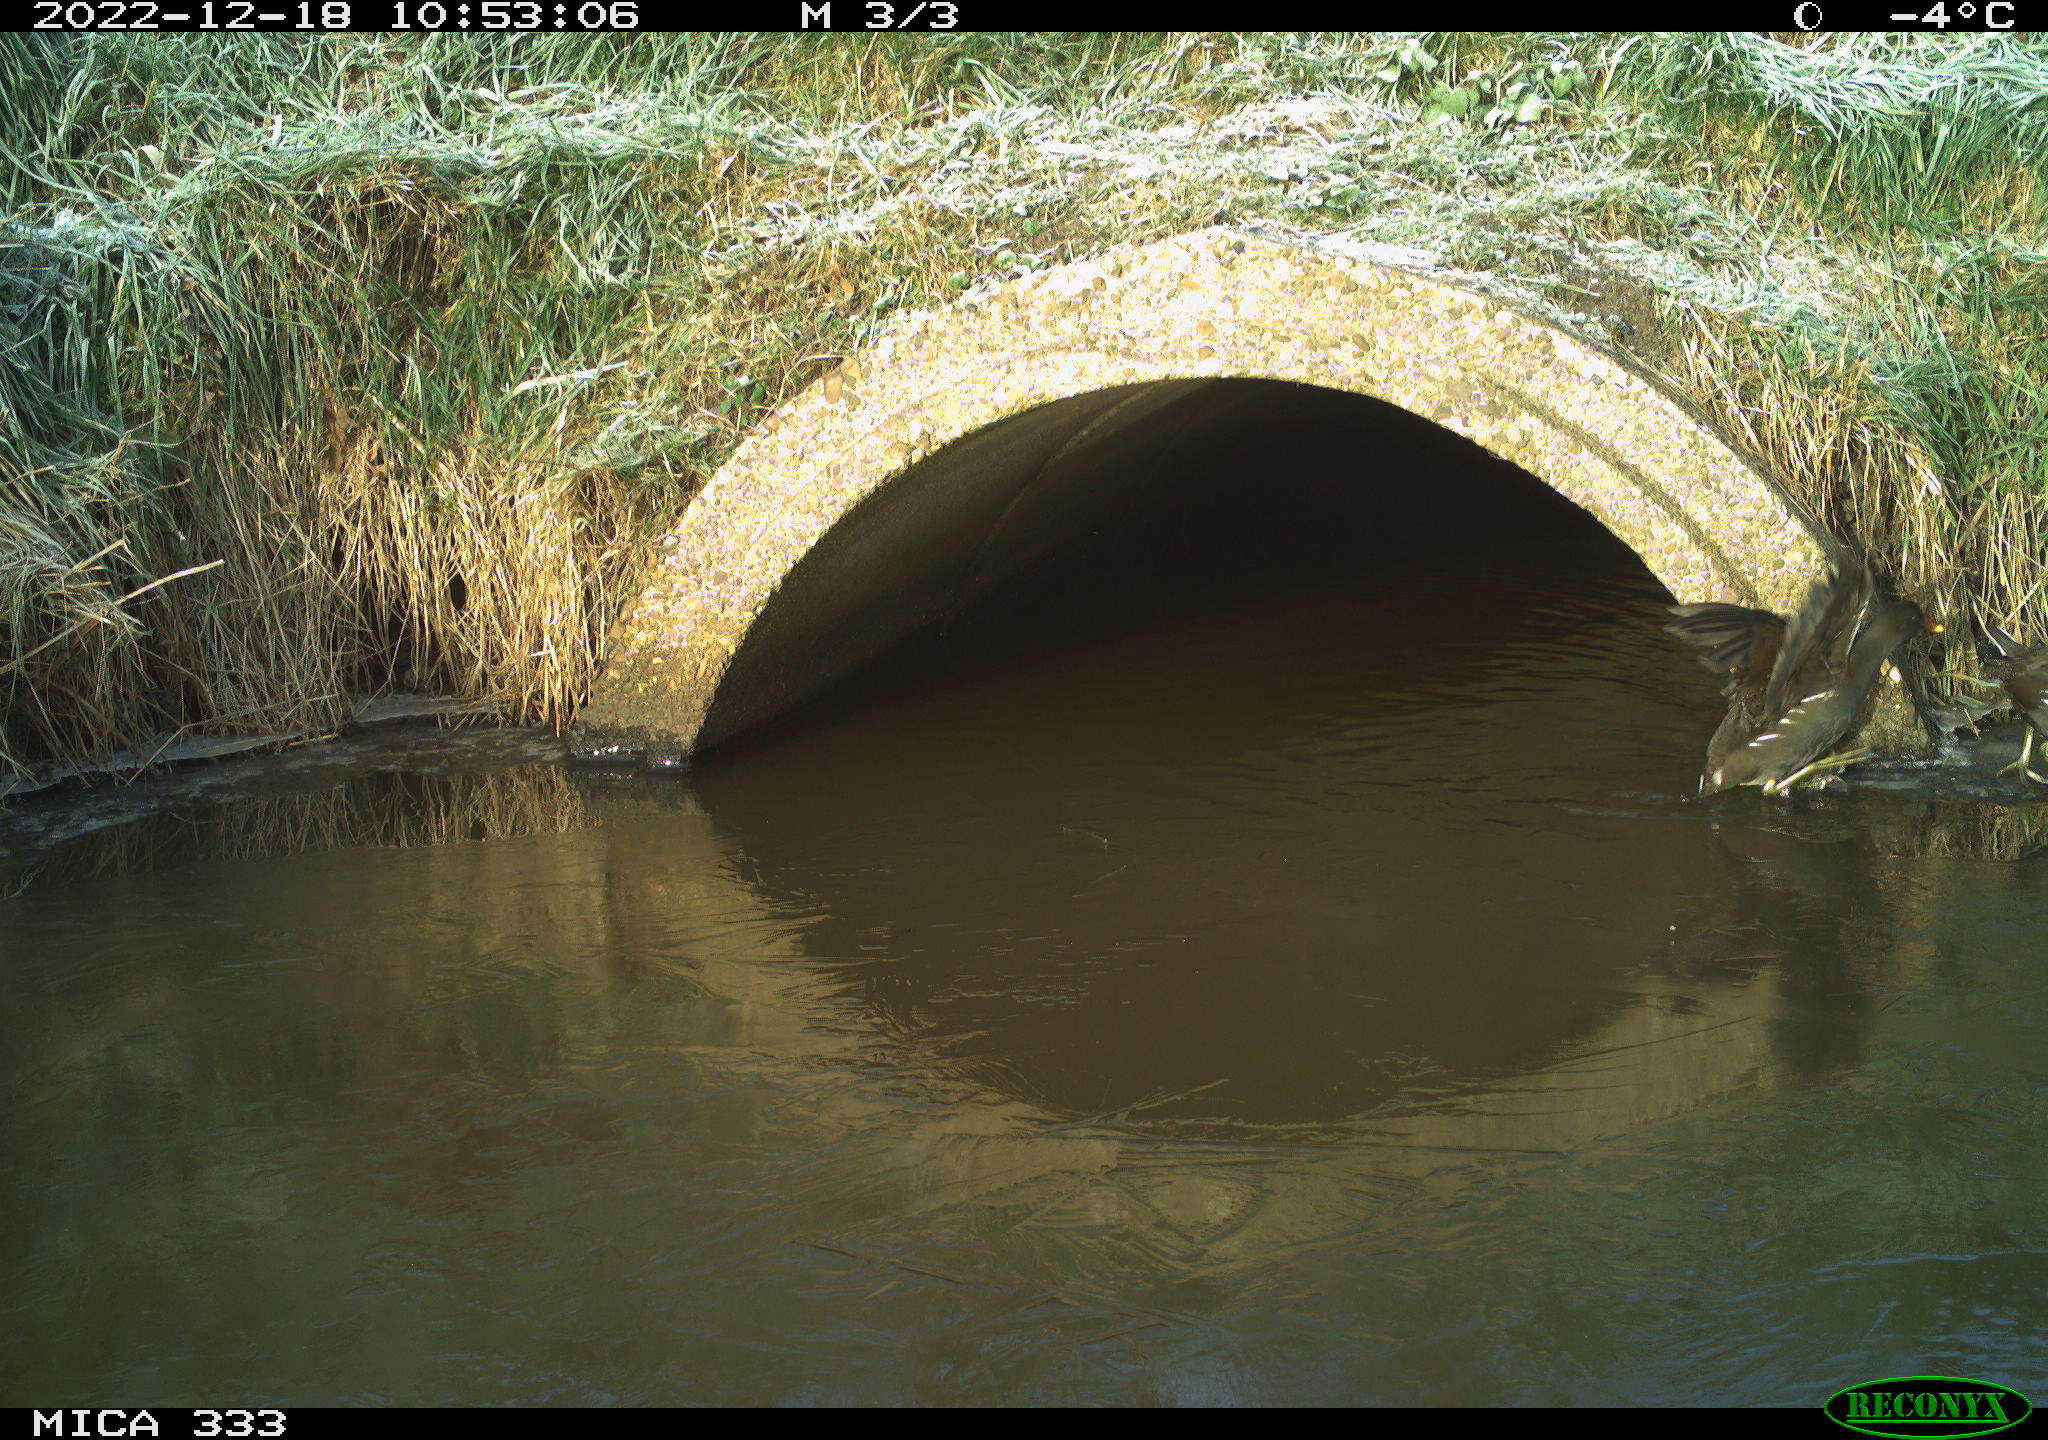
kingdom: Animalia
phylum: Chordata
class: Aves
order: Gruiformes
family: Rallidae
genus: Gallinula
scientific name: Gallinula chloropus
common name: Common moorhen
